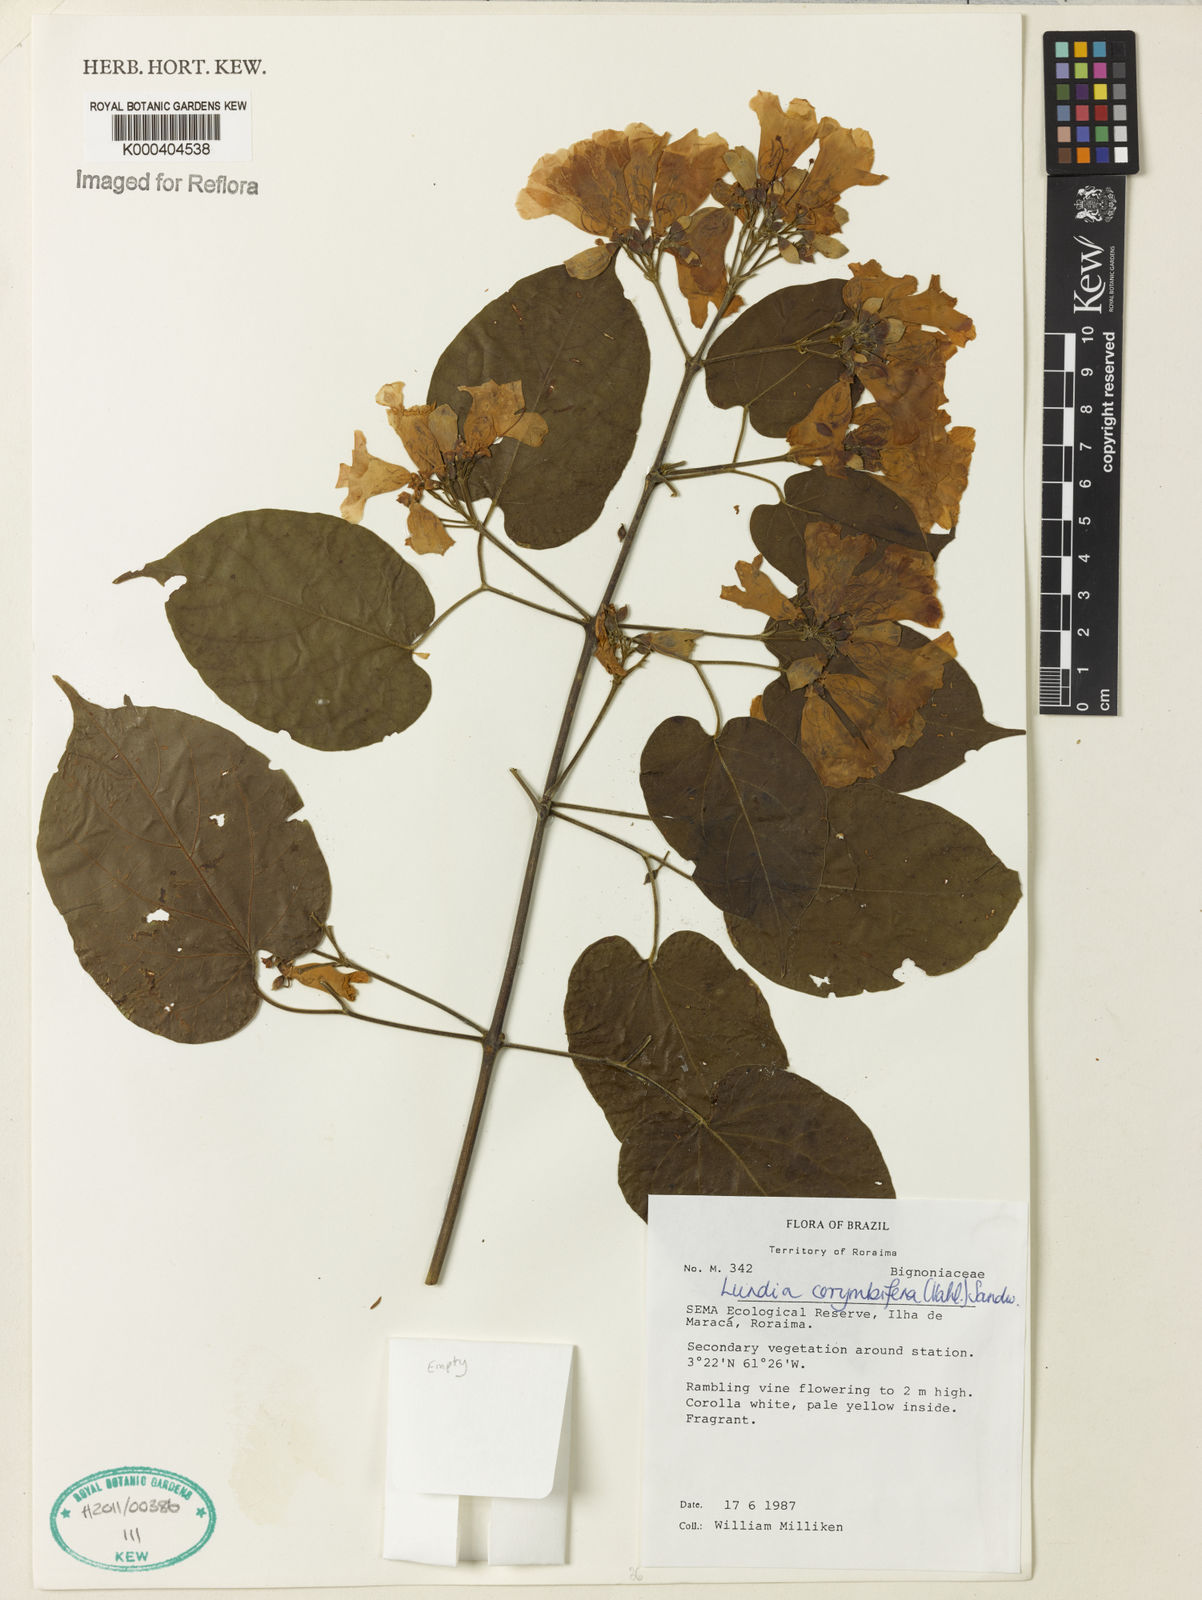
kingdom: Plantae
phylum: Tracheophyta
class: Magnoliopsida
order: Lamiales
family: Bignoniaceae
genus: Lundia
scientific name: Lundia corymbifera
